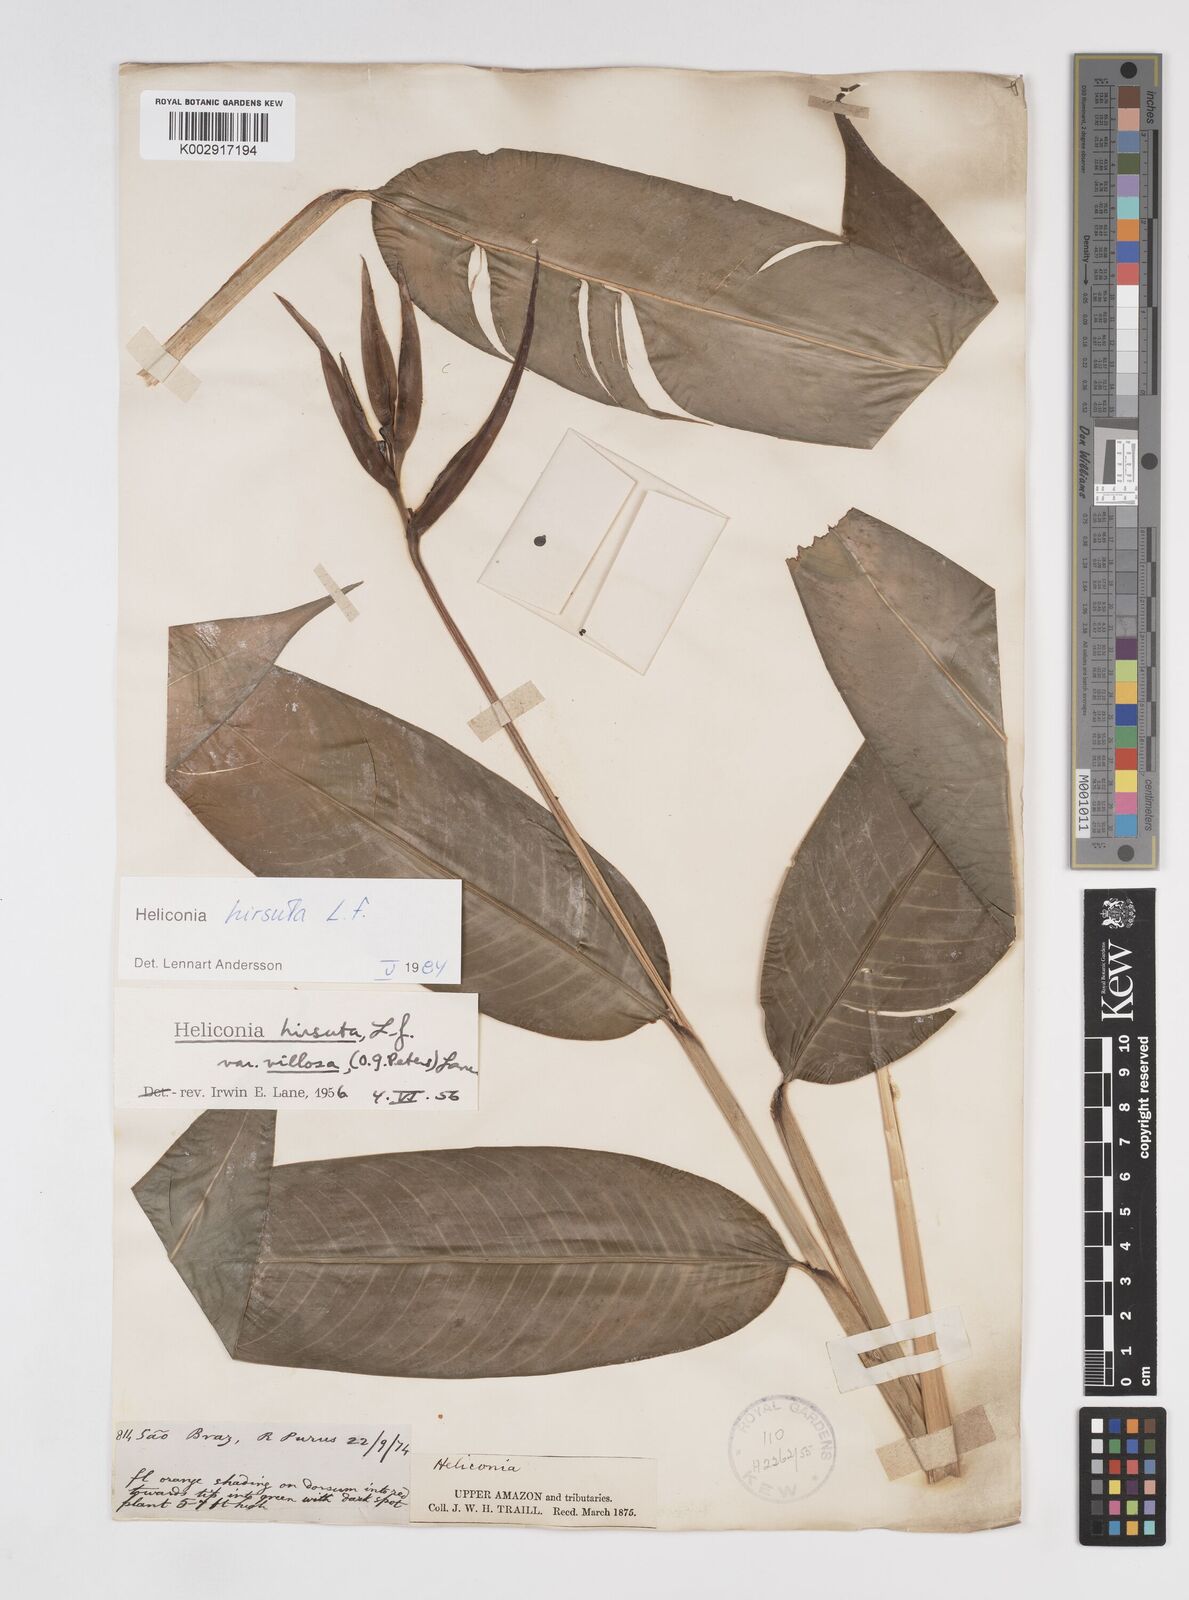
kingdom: Plantae
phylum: Tracheophyta
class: Liliopsida
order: Zingiberales
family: Heliconiaceae
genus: Heliconia
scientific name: Heliconia hirsuta
